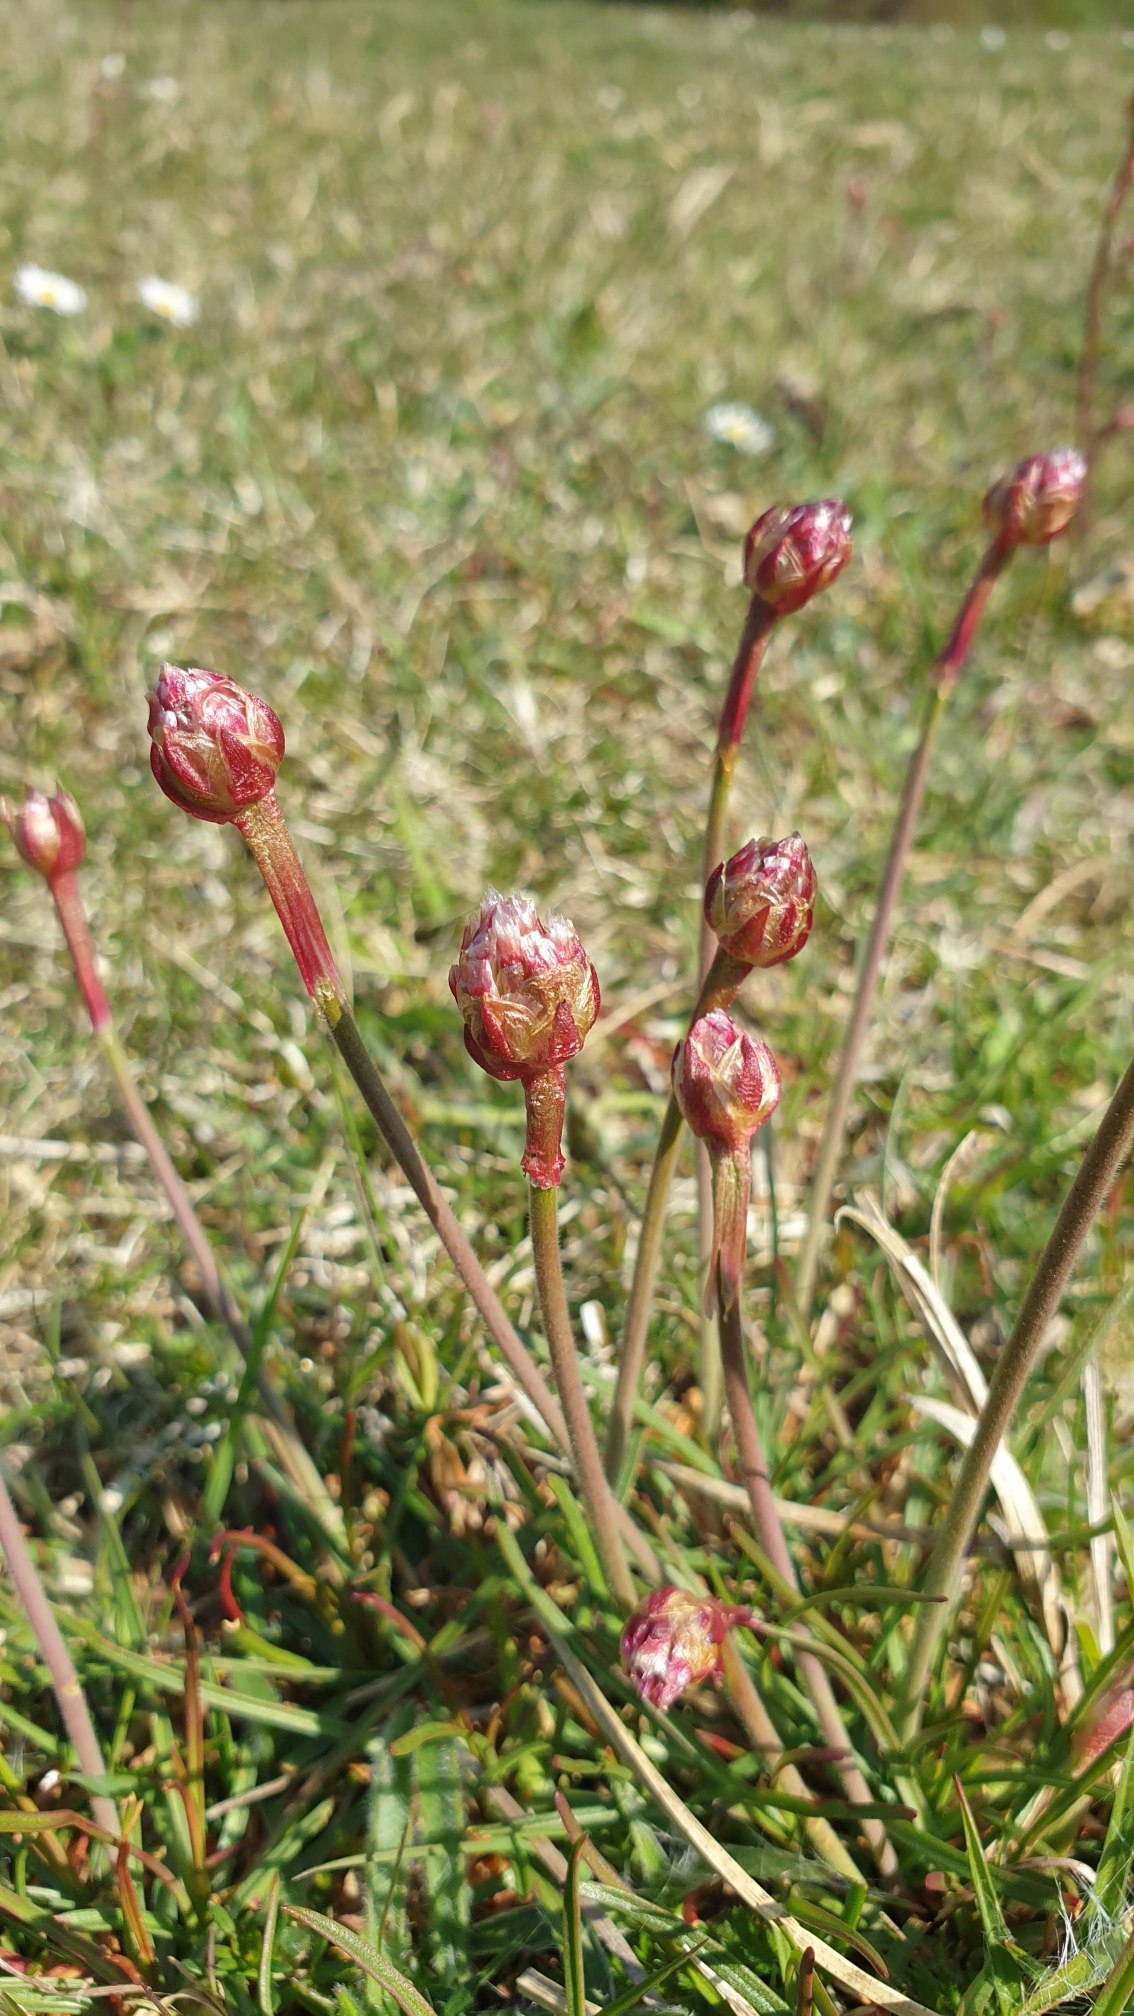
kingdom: Plantae
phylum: Tracheophyta
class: Magnoliopsida
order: Caryophyllales
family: Plumbaginaceae
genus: Armeria
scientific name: Armeria maritima
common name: Engelskgræs
